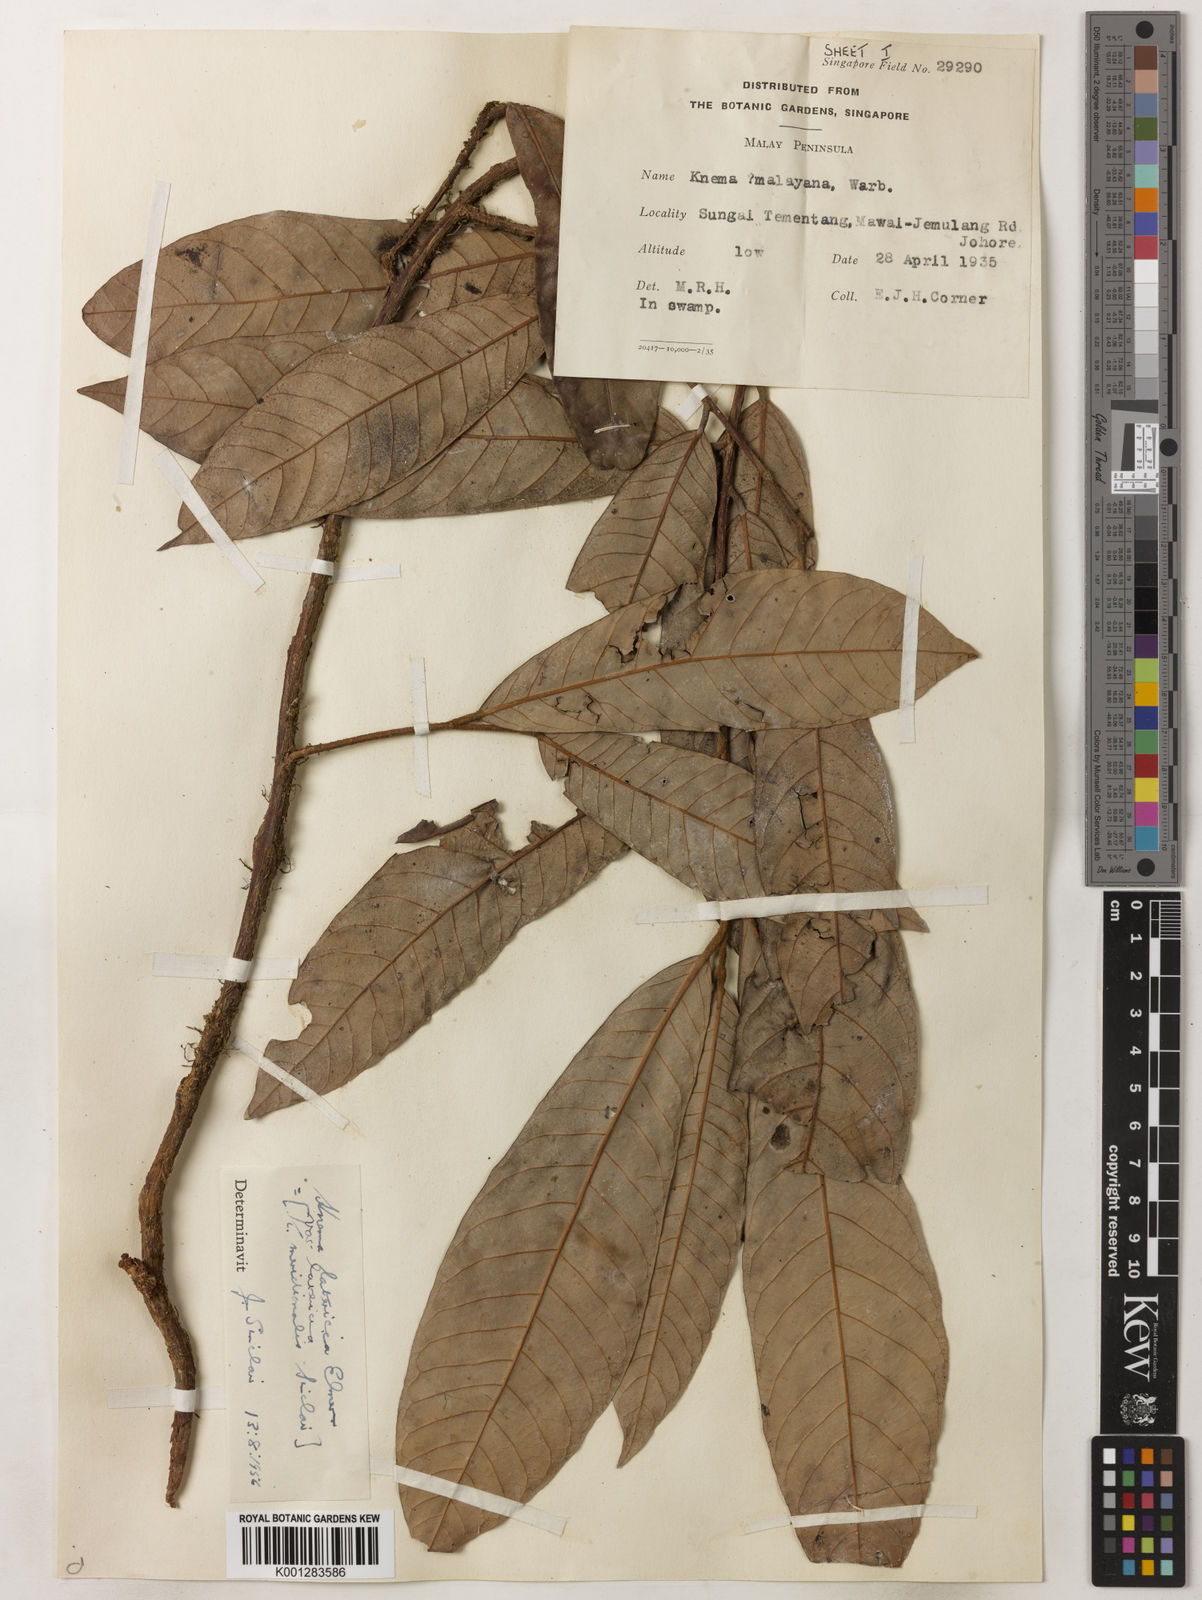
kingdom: Plantae
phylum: Tracheophyta
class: Magnoliopsida
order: Magnoliales
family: Myristicaceae
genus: Knema
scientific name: Knema latericia
